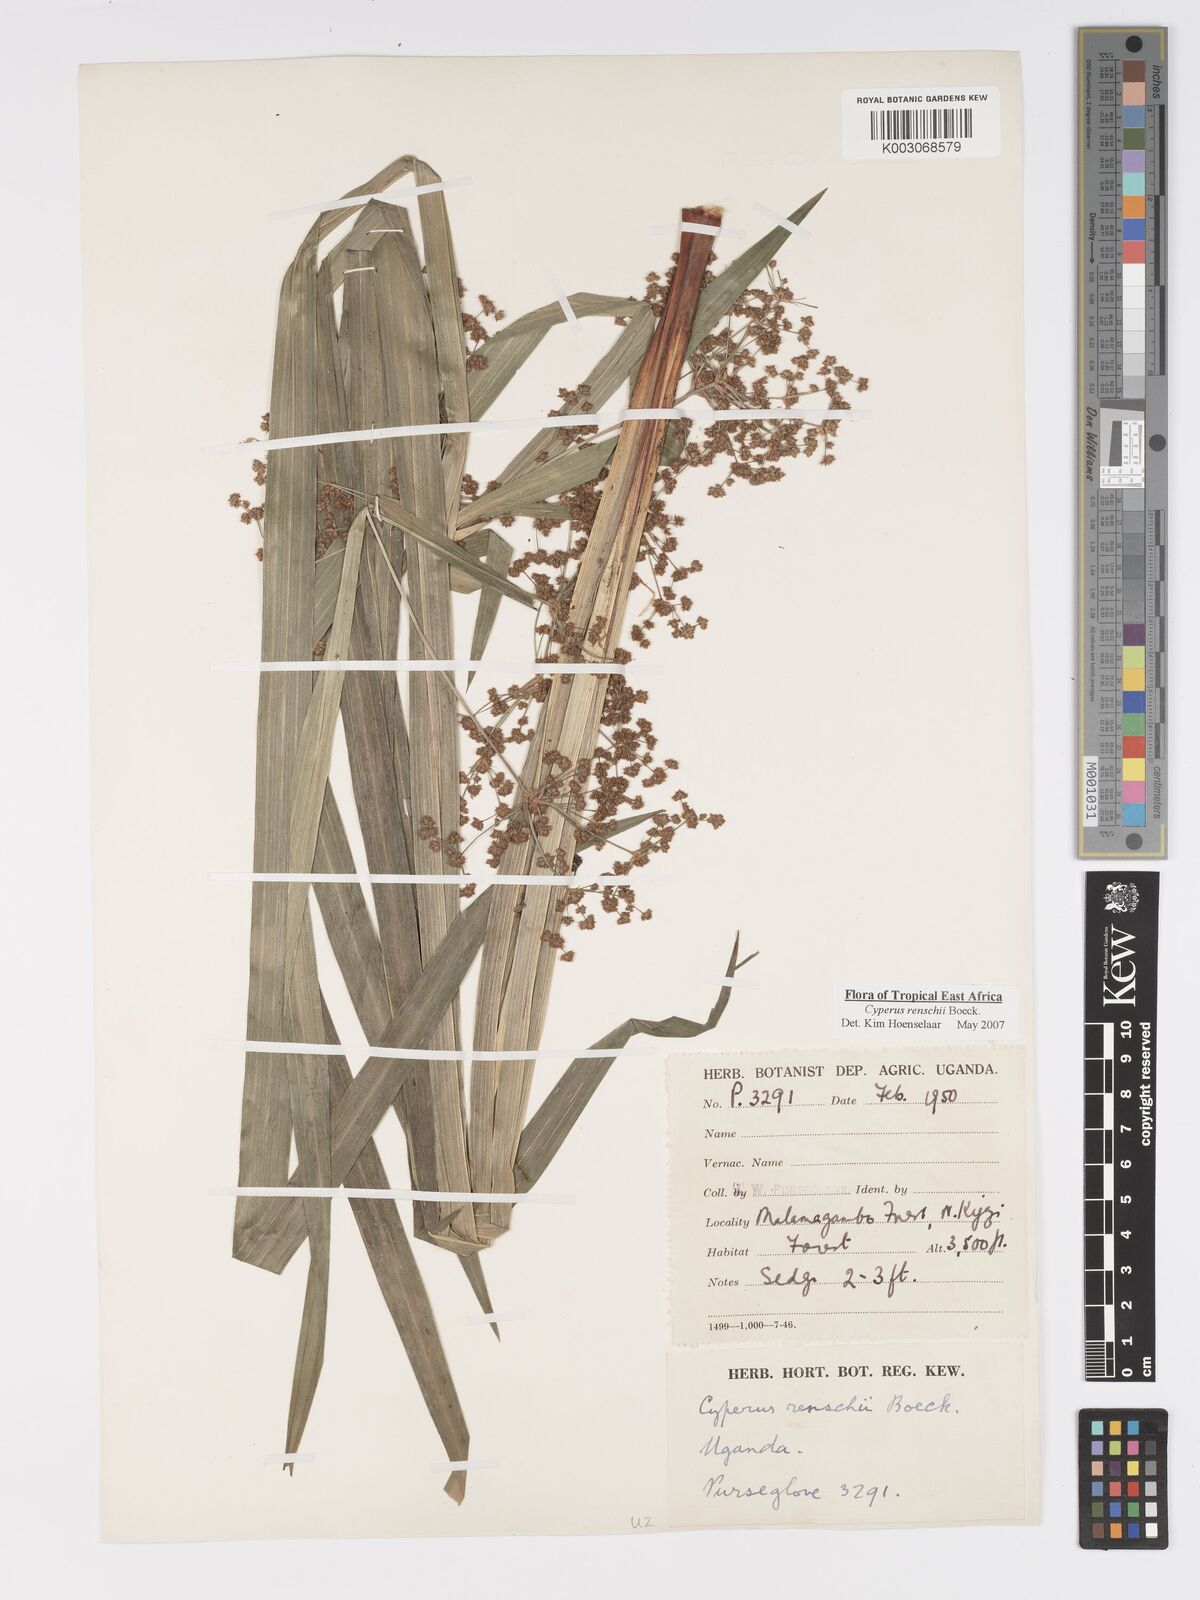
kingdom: Plantae
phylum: Tracheophyta
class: Liliopsida
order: Poales
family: Cyperaceae
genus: Cyperus
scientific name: Cyperus renschii
